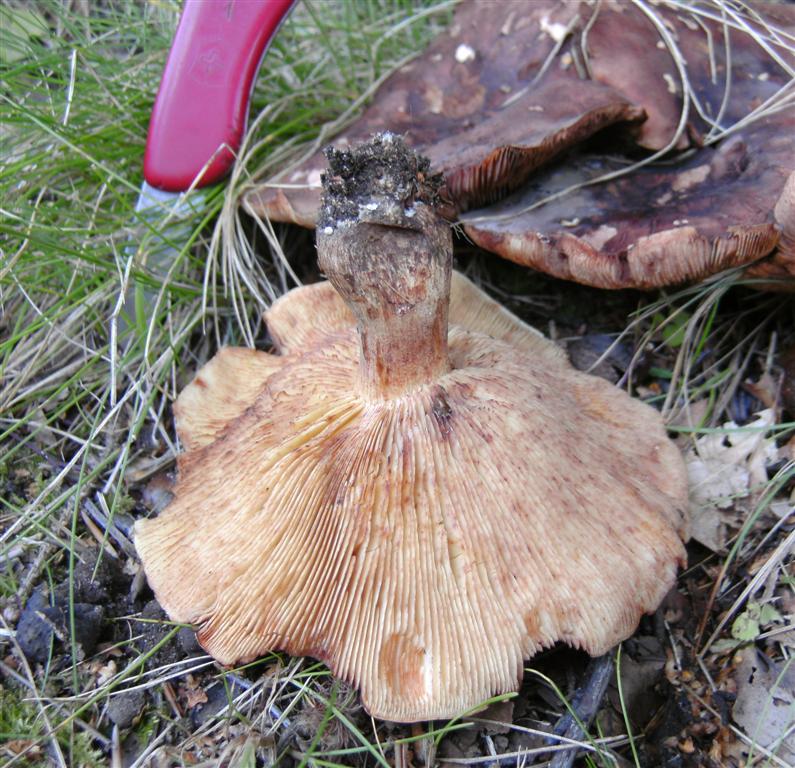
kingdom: Fungi
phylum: Basidiomycota
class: Agaricomycetes
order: Agaricales
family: Tricholomataceae
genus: Tricholoma
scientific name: Tricholoma fulvum
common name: birke-ridderhat
